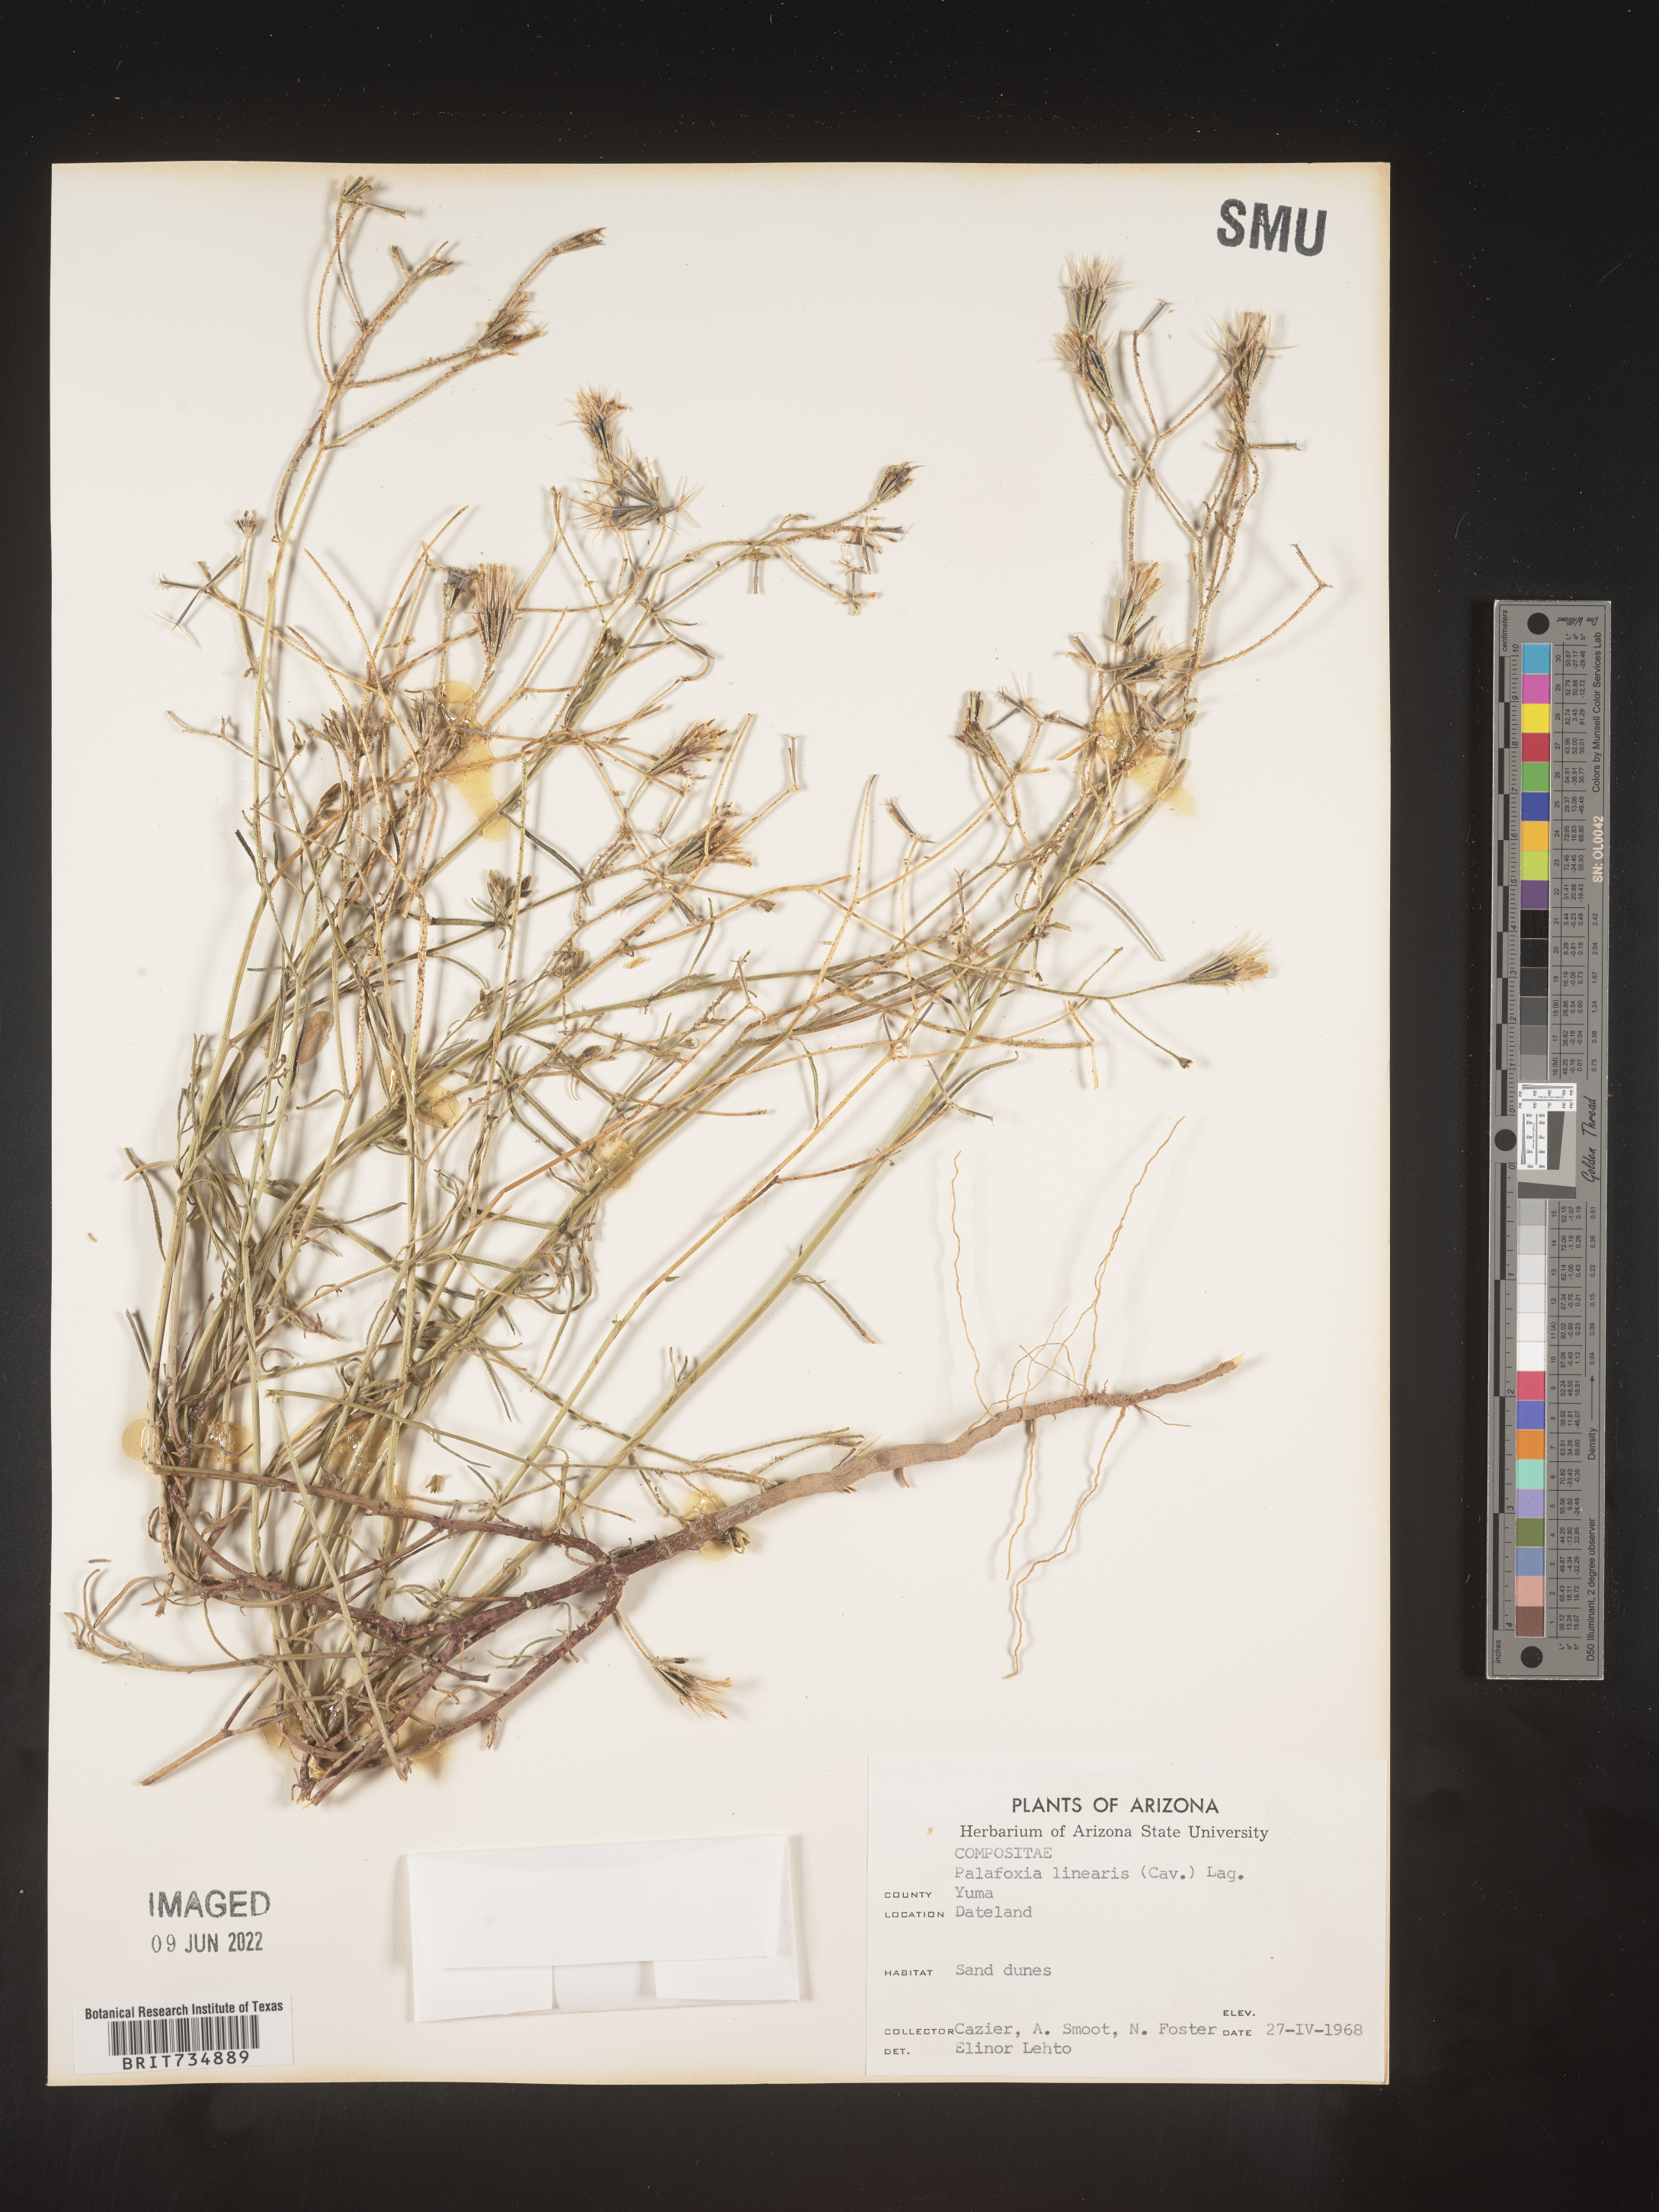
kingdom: Plantae
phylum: Tracheophyta
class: Magnoliopsida
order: Asterales
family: Asteraceae
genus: Palafoxia
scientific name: Palafoxia linearis
